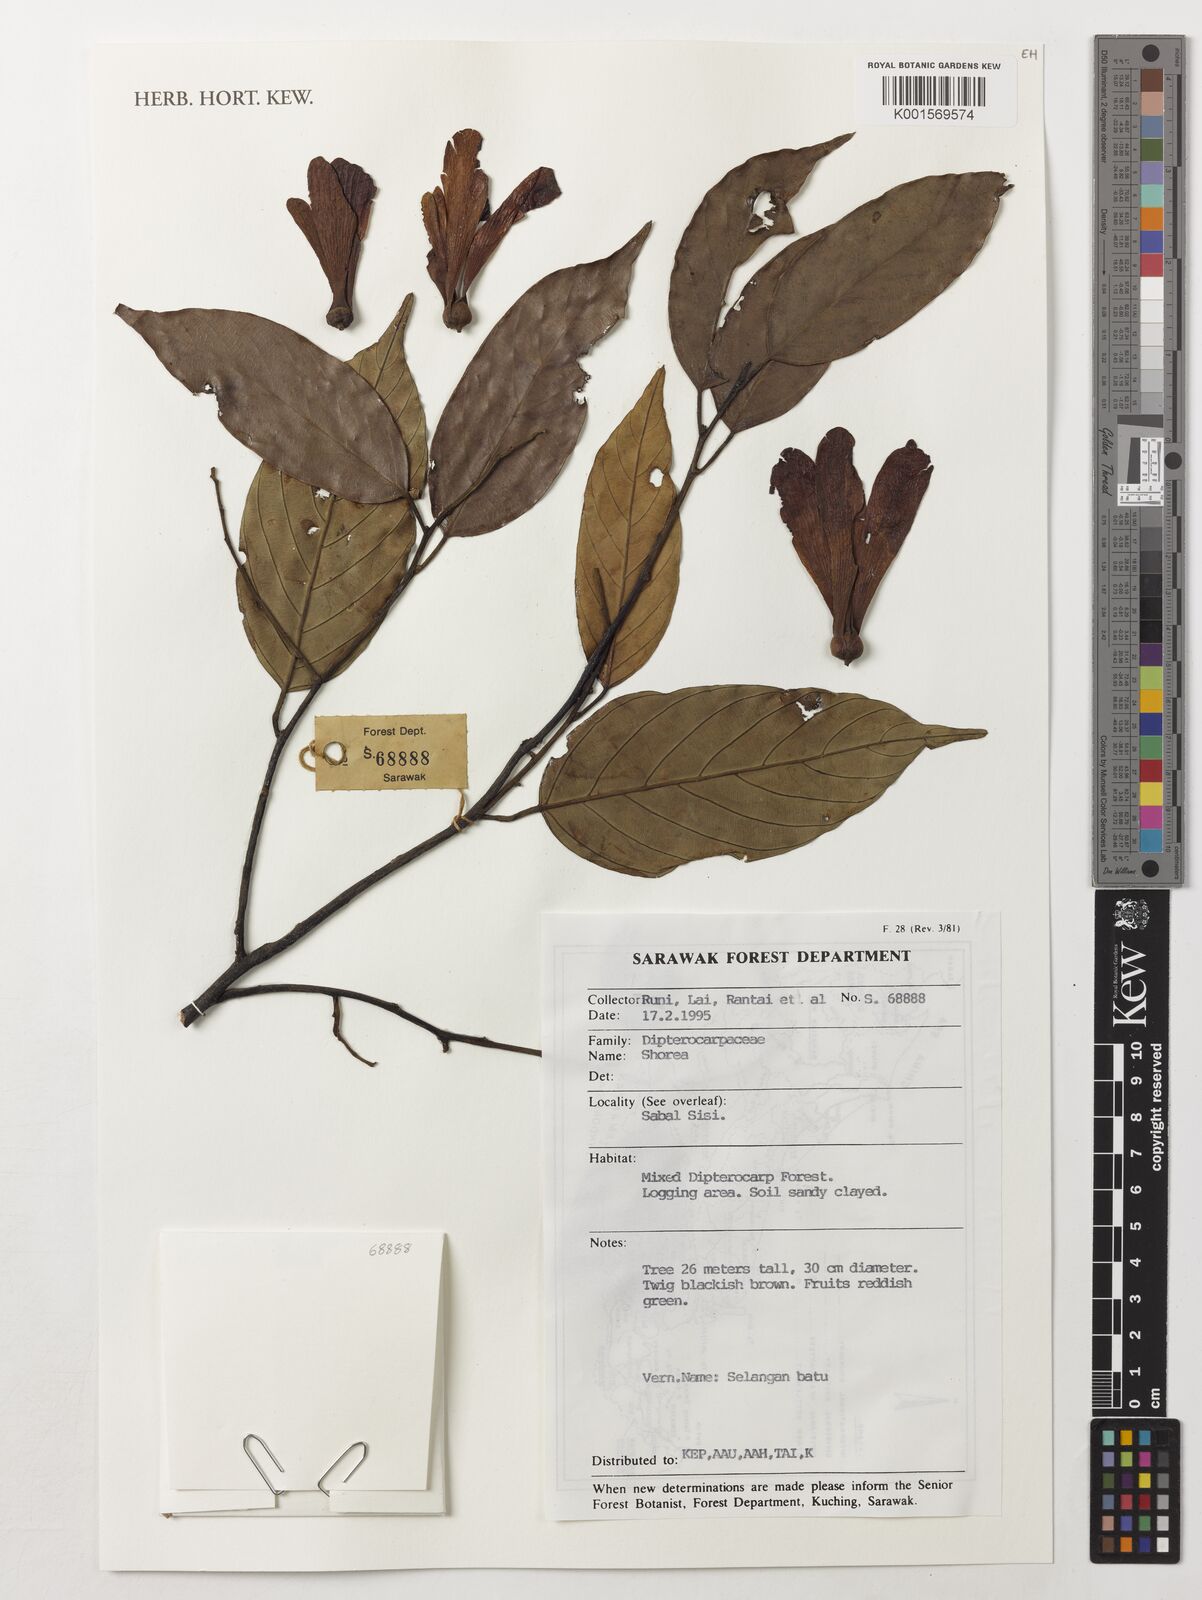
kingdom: Plantae
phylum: Tracheophyta
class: Magnoliopsida
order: Malvales
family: Dipterocarpaceae
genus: Shorea
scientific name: Shorea
